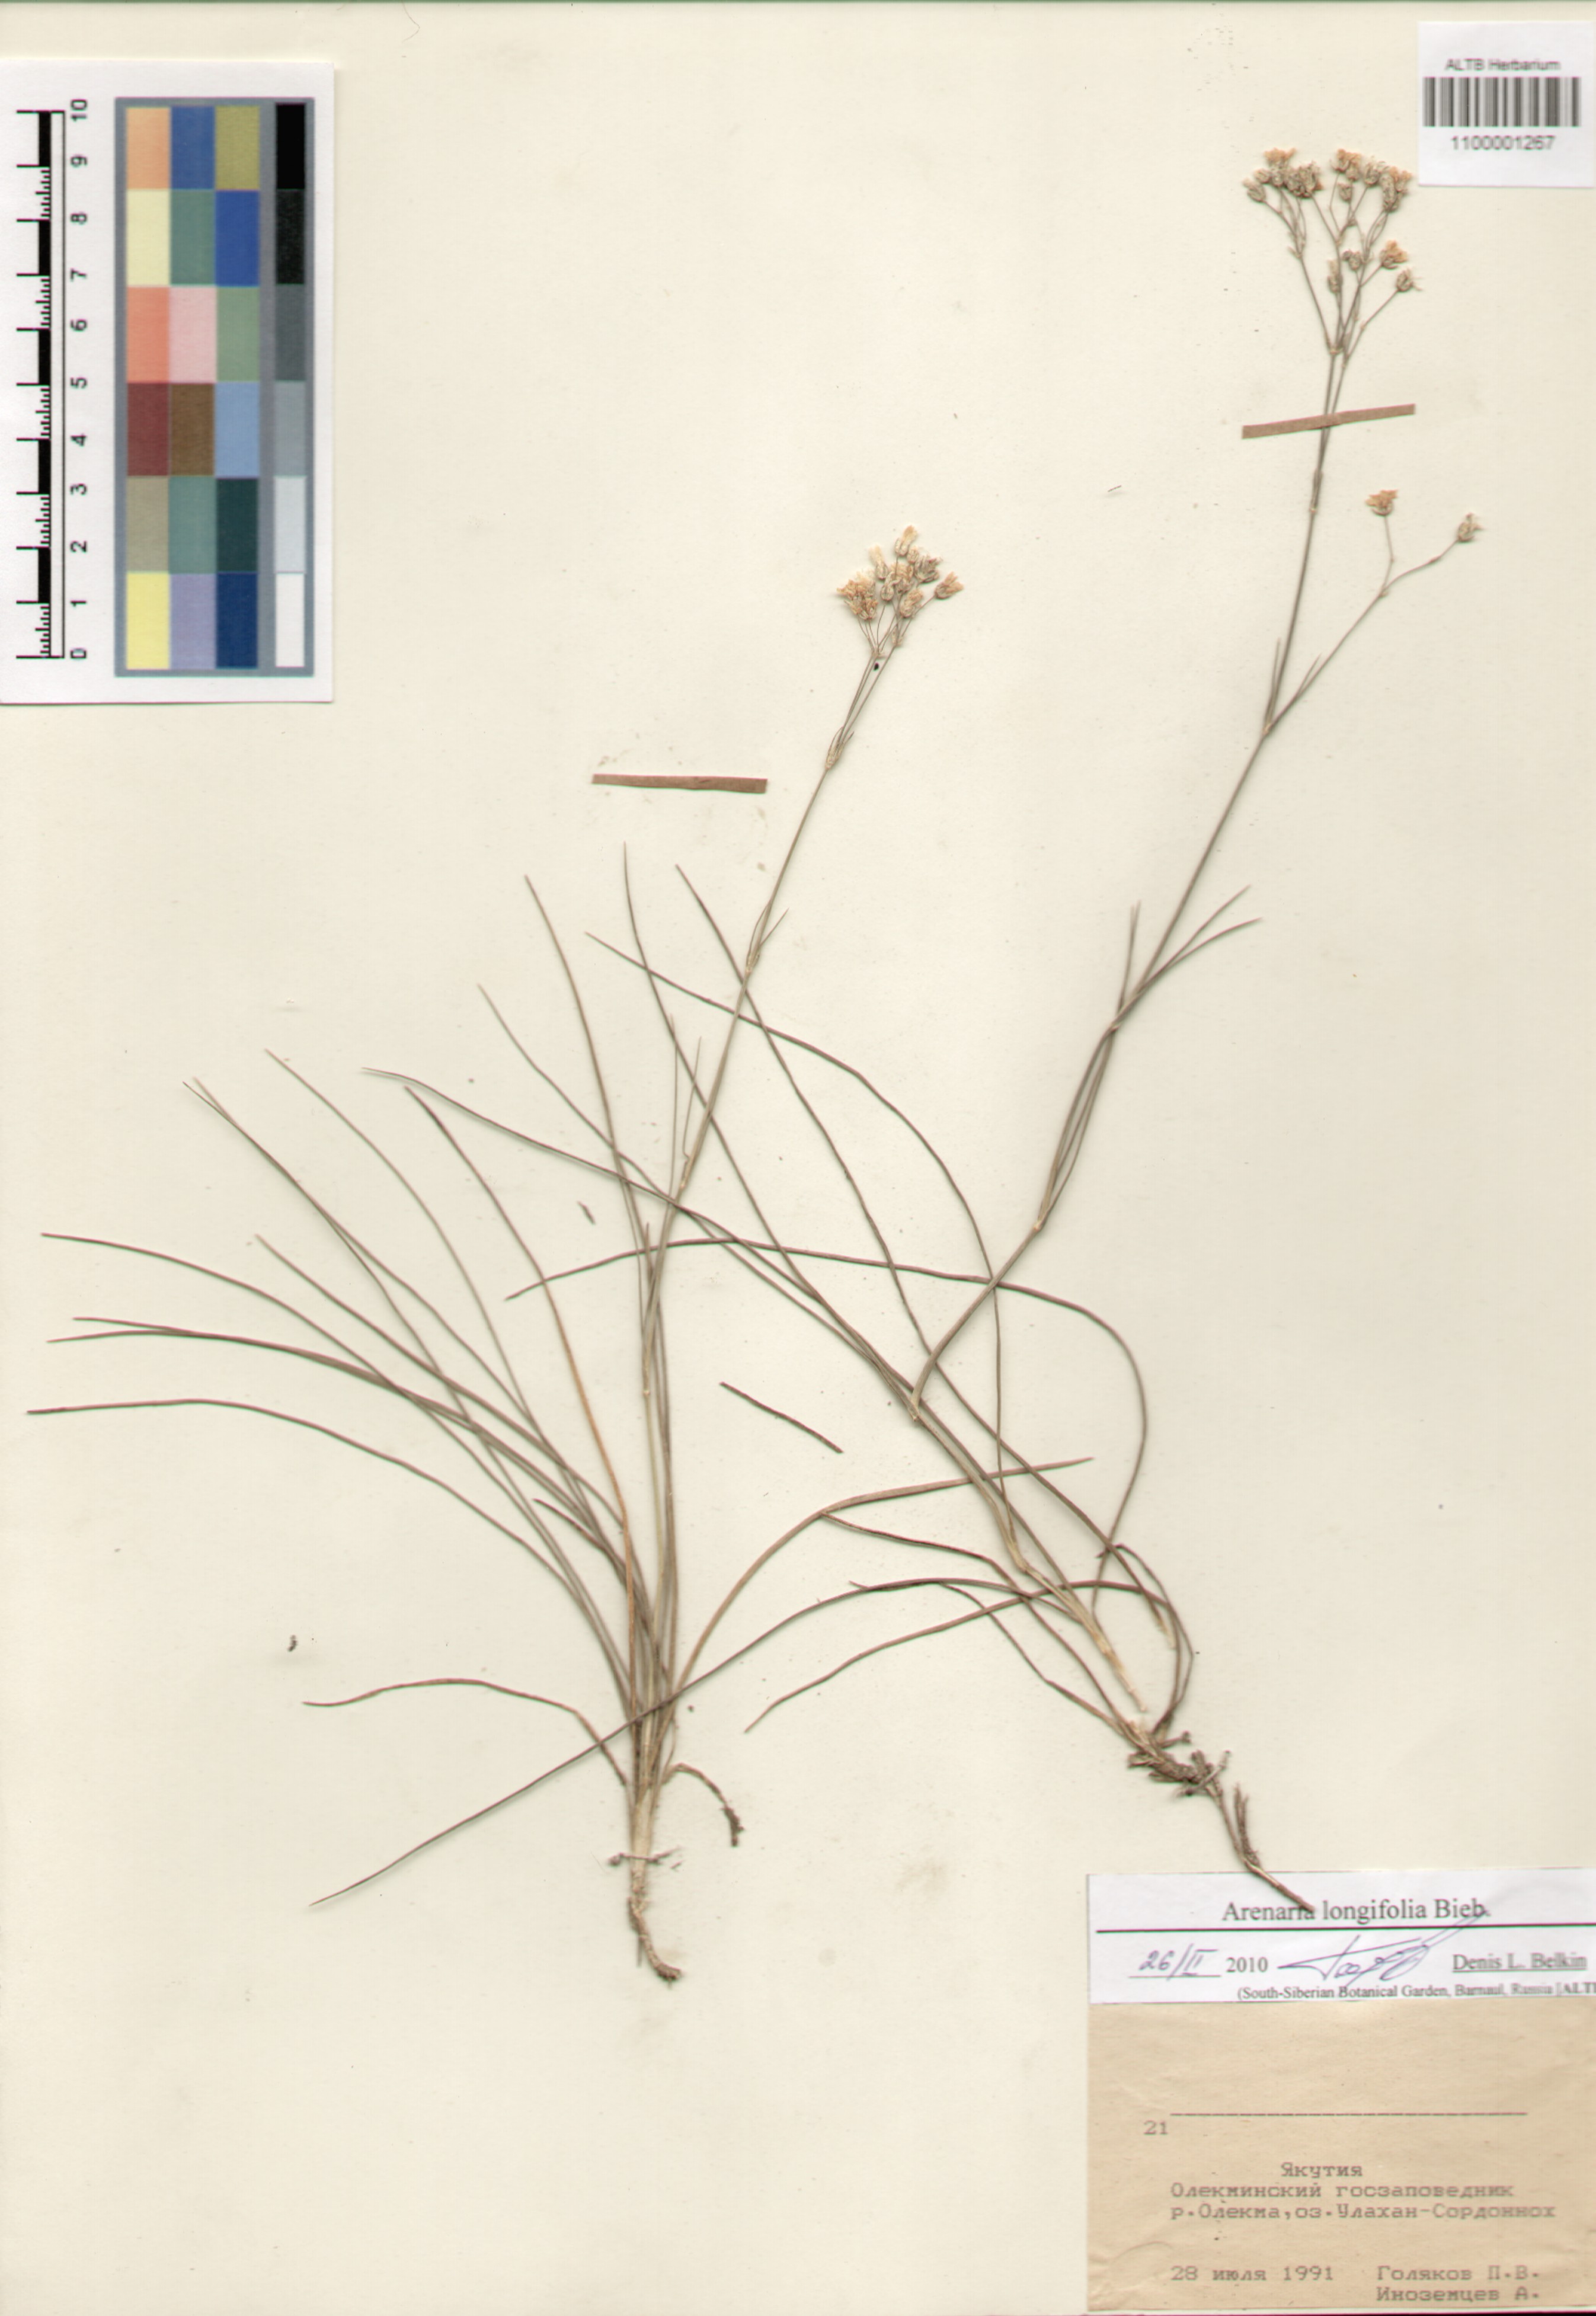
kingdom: Plantae
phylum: Tracheophyta
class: Magnoliopsida
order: Caryophyllales
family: Caryophyllaceae
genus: Eremogone
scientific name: Eremogone longifolia
